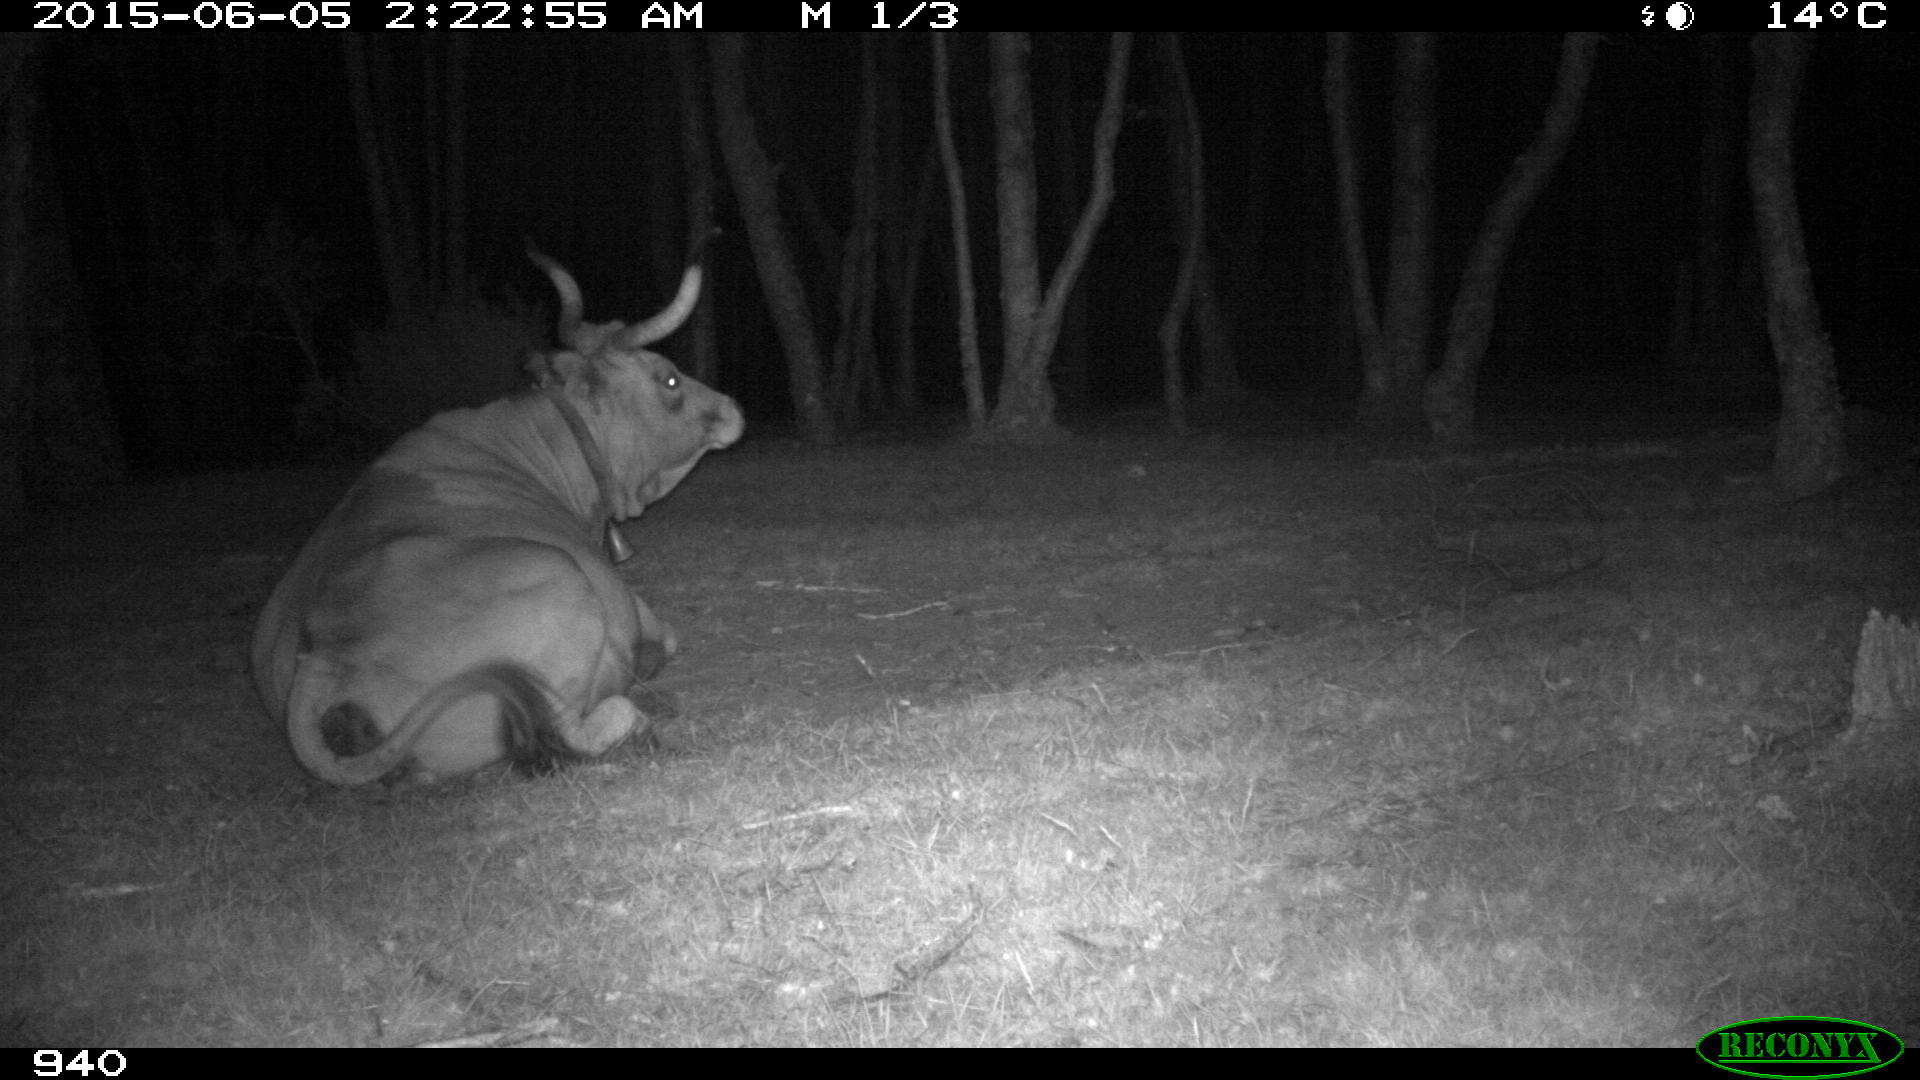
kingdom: Animalia
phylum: Chordata
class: Mammalia
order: Artiodactyla
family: Bovidae
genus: Bos
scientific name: Bos taurus
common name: Domesticated cattle
